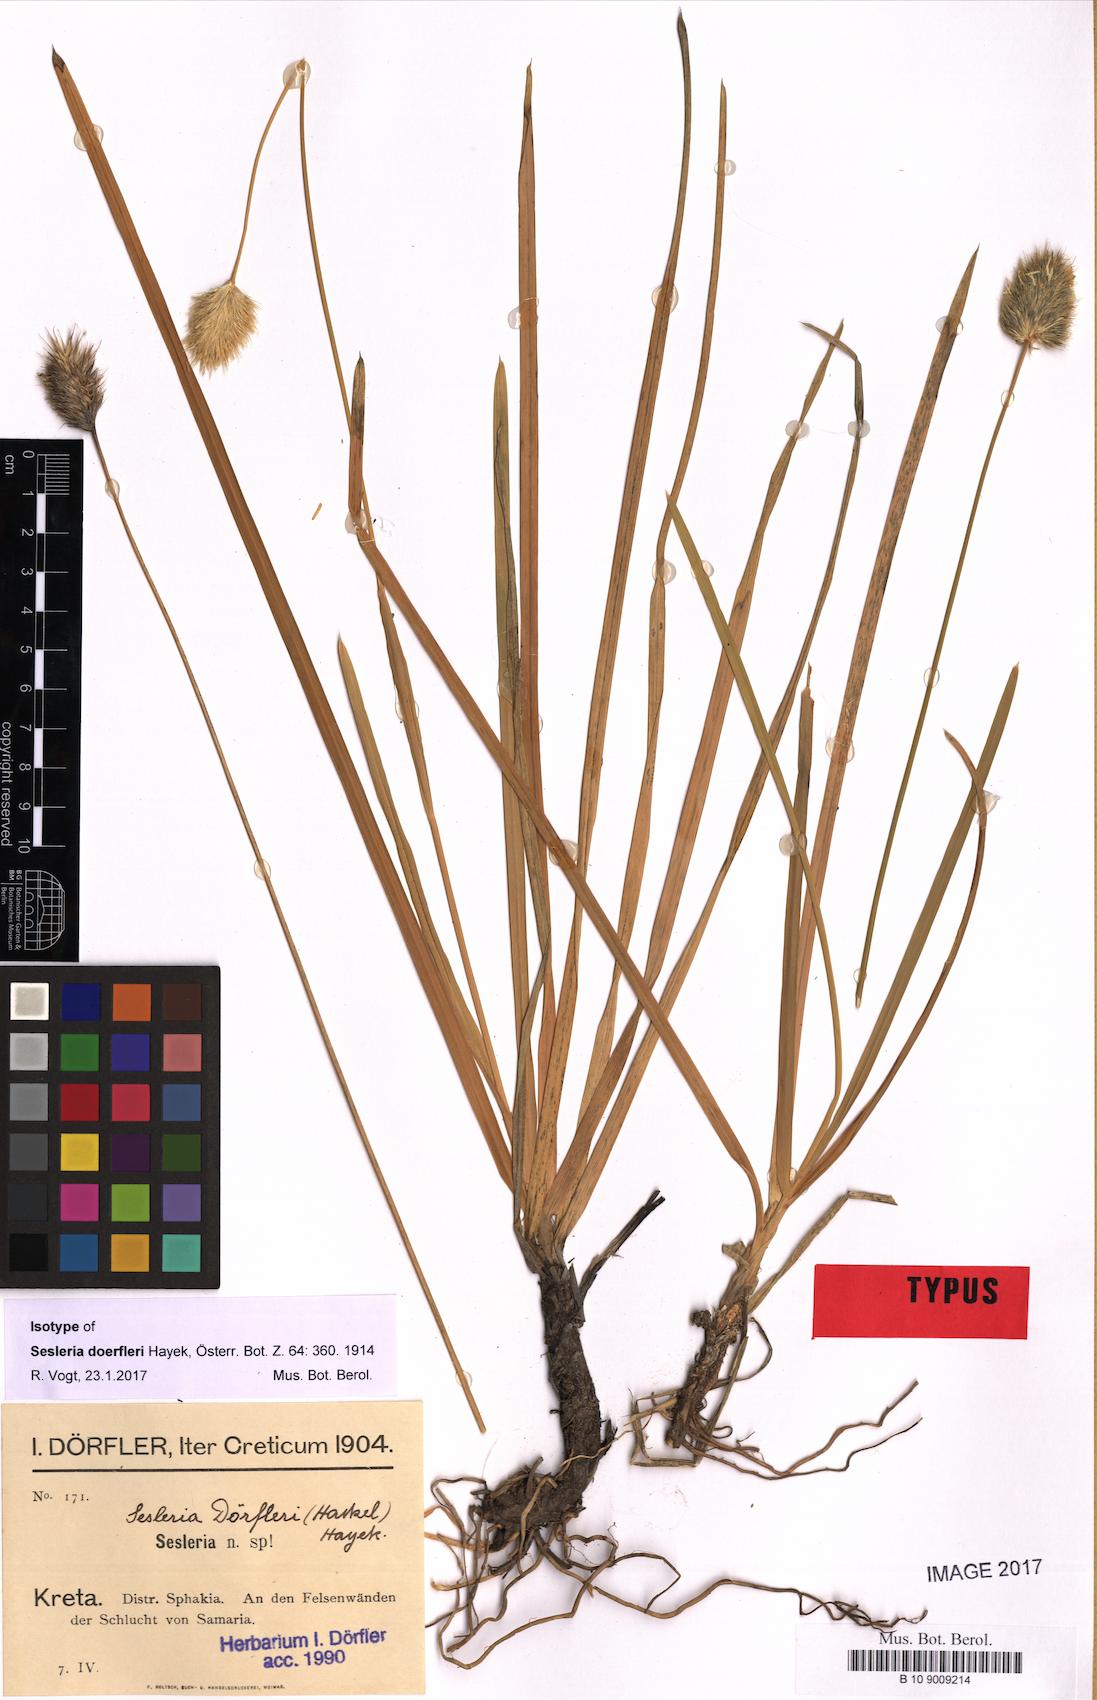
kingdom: Plantae
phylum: Tracheophyta
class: Liliopsida
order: Poales
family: Poaceae
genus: Sesleria
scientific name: Sesleria doerfleri
